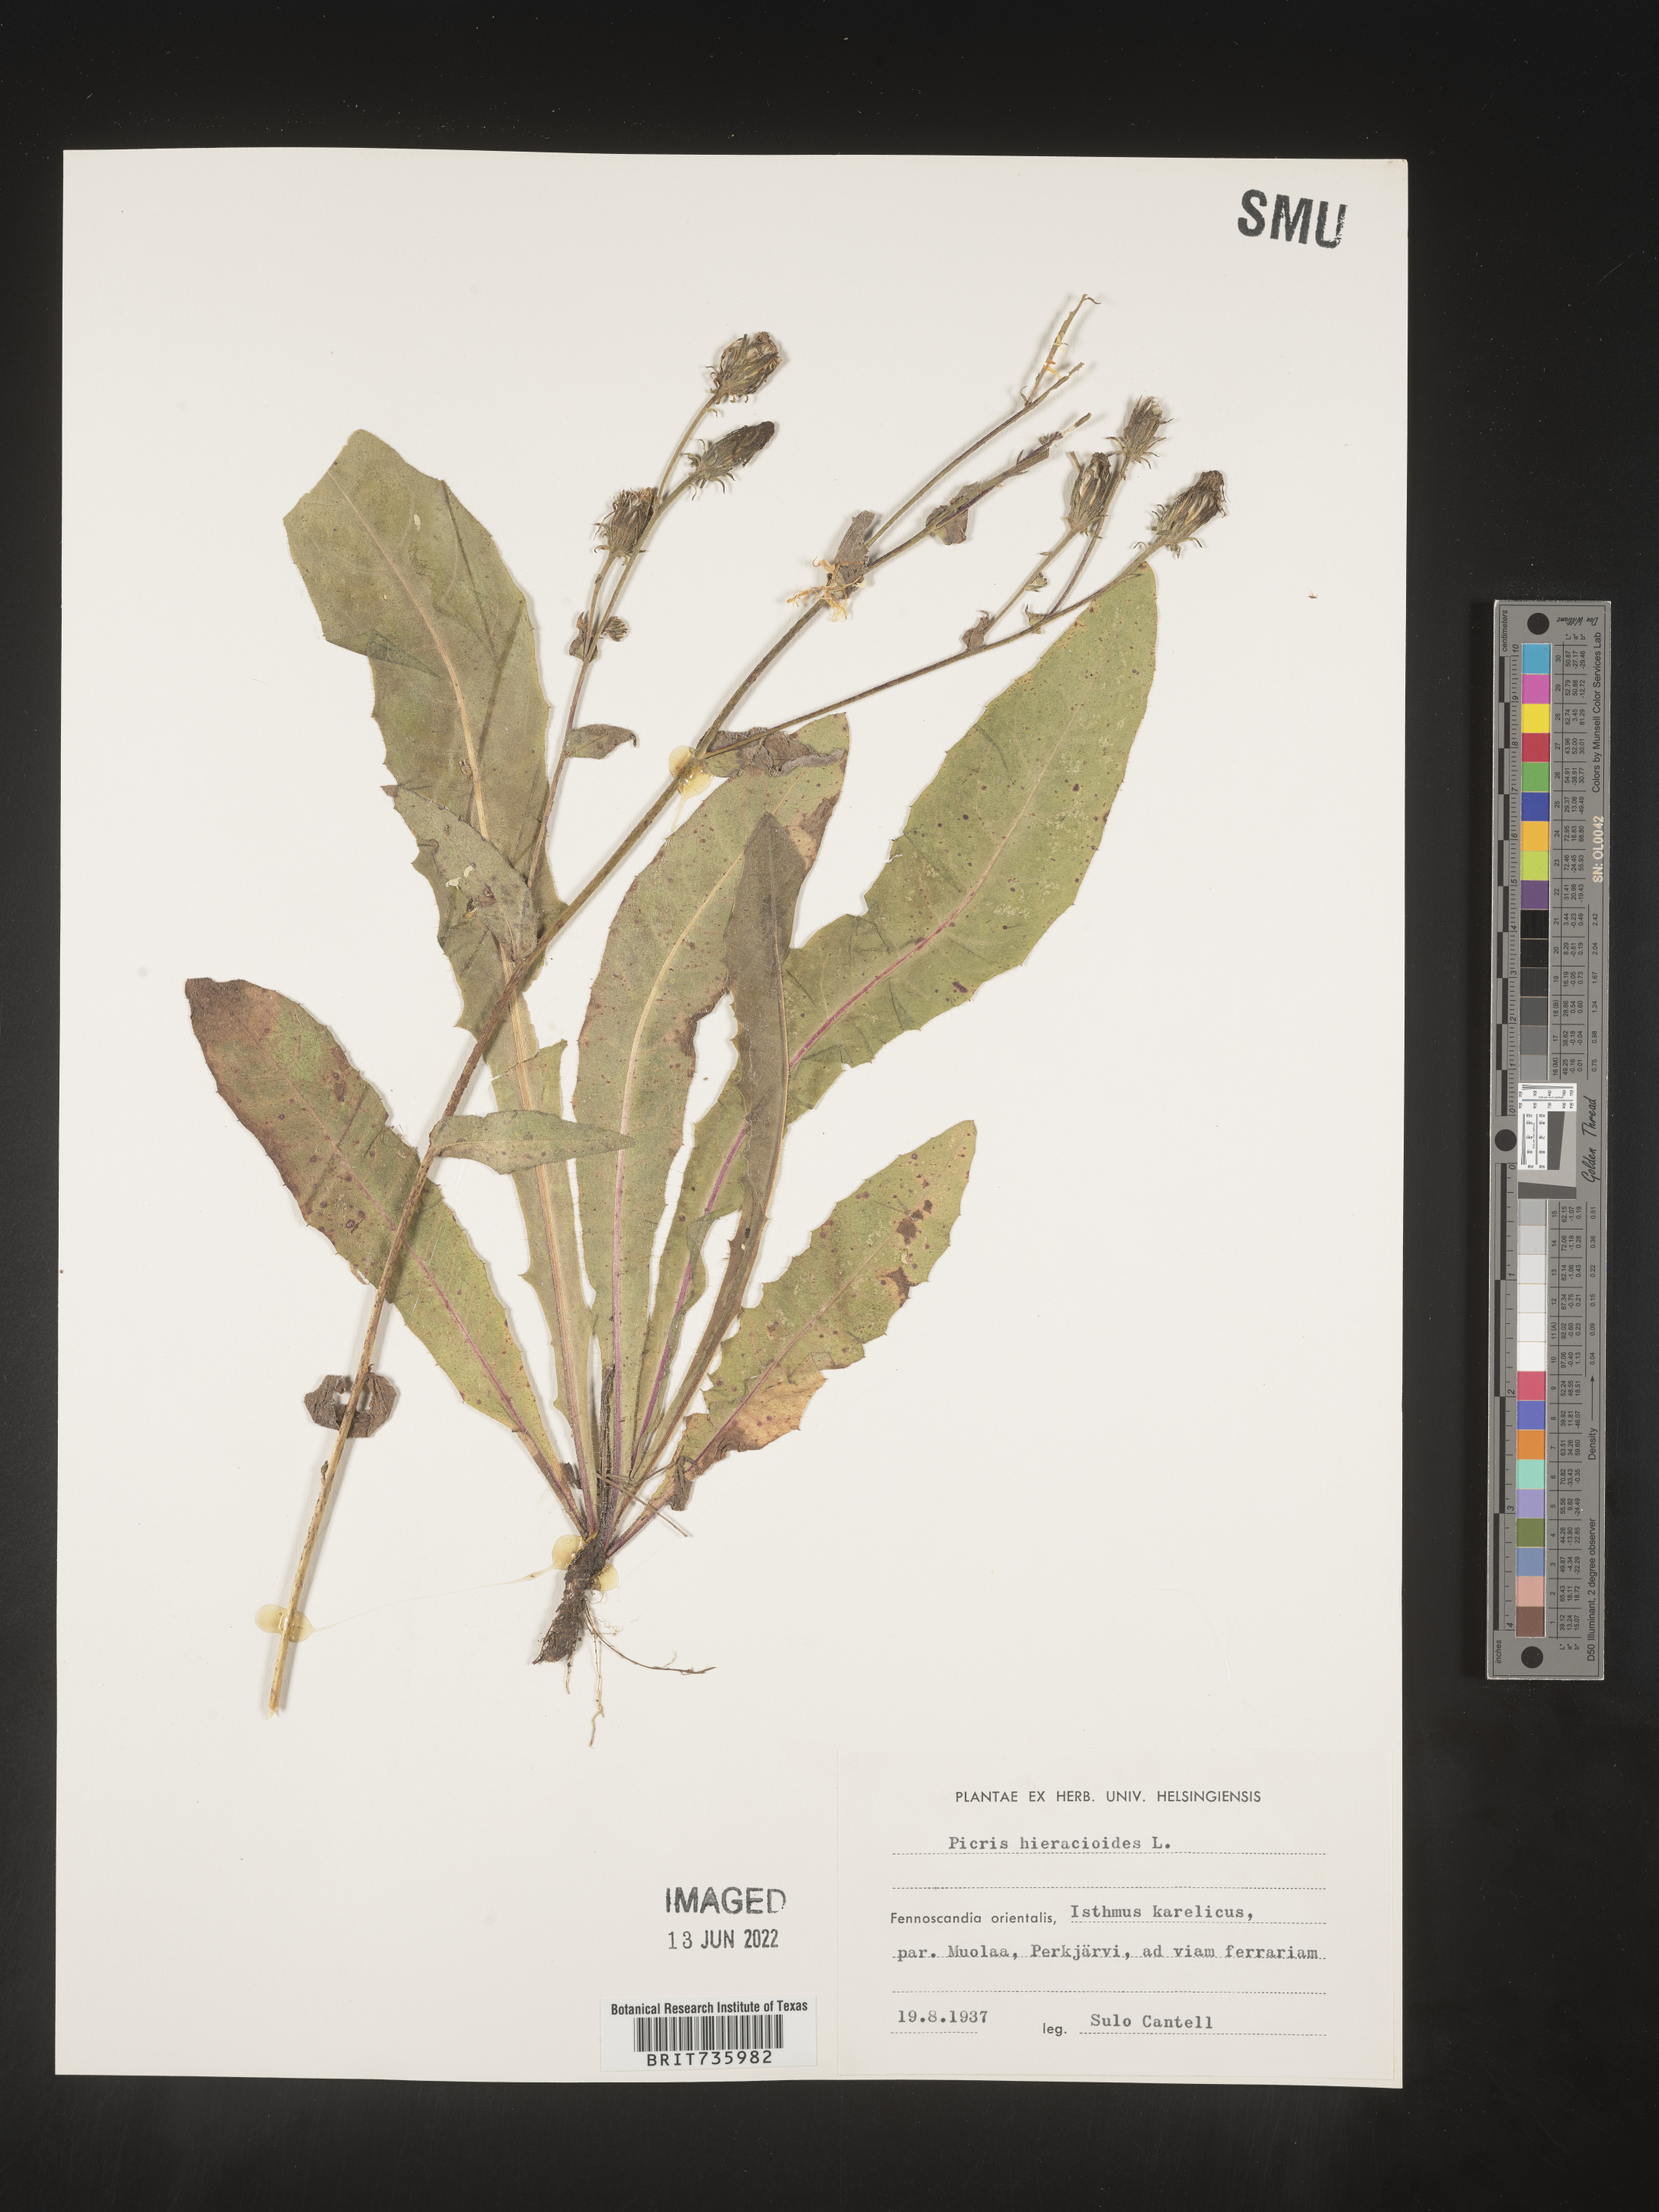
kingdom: Plantae
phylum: Tracheophyta
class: Magnoliopsida
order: Asterales
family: Asteraceae
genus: Picris
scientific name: Picris
